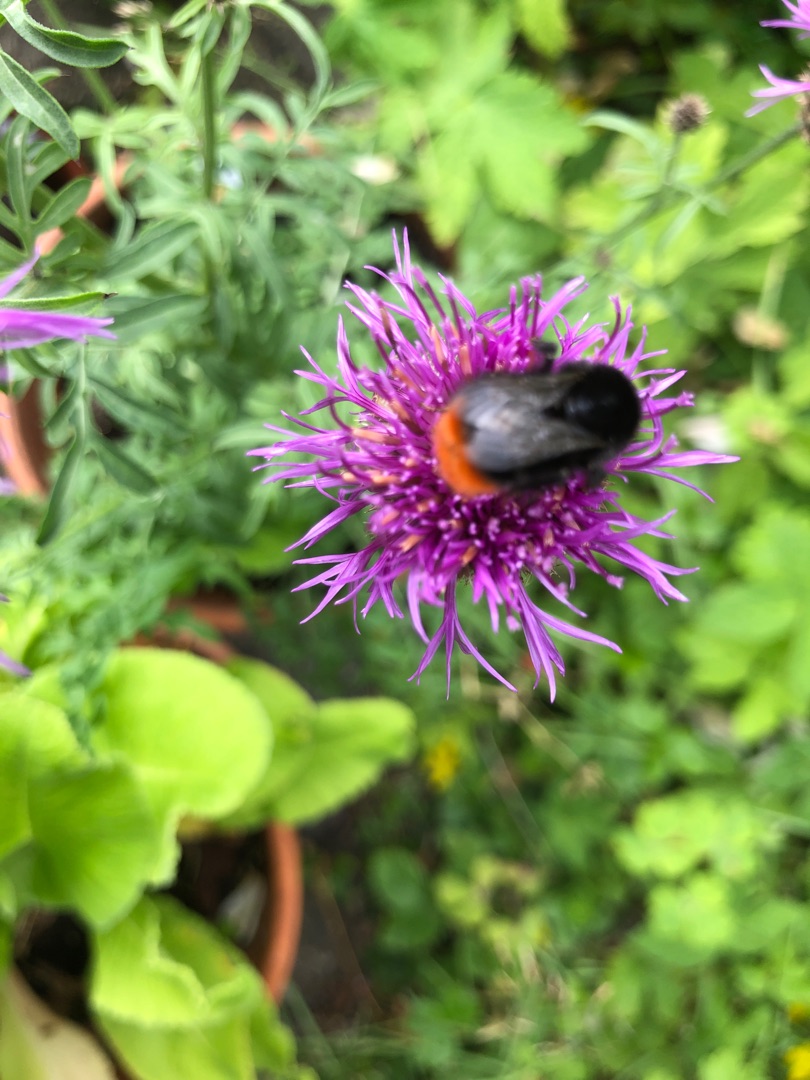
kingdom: Plantae
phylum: Tracheophyta
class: Magnoliopsida
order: Asterales
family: Asteraceae
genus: Centaurea
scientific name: Centaurea scabiosa
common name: Stor knopurt
